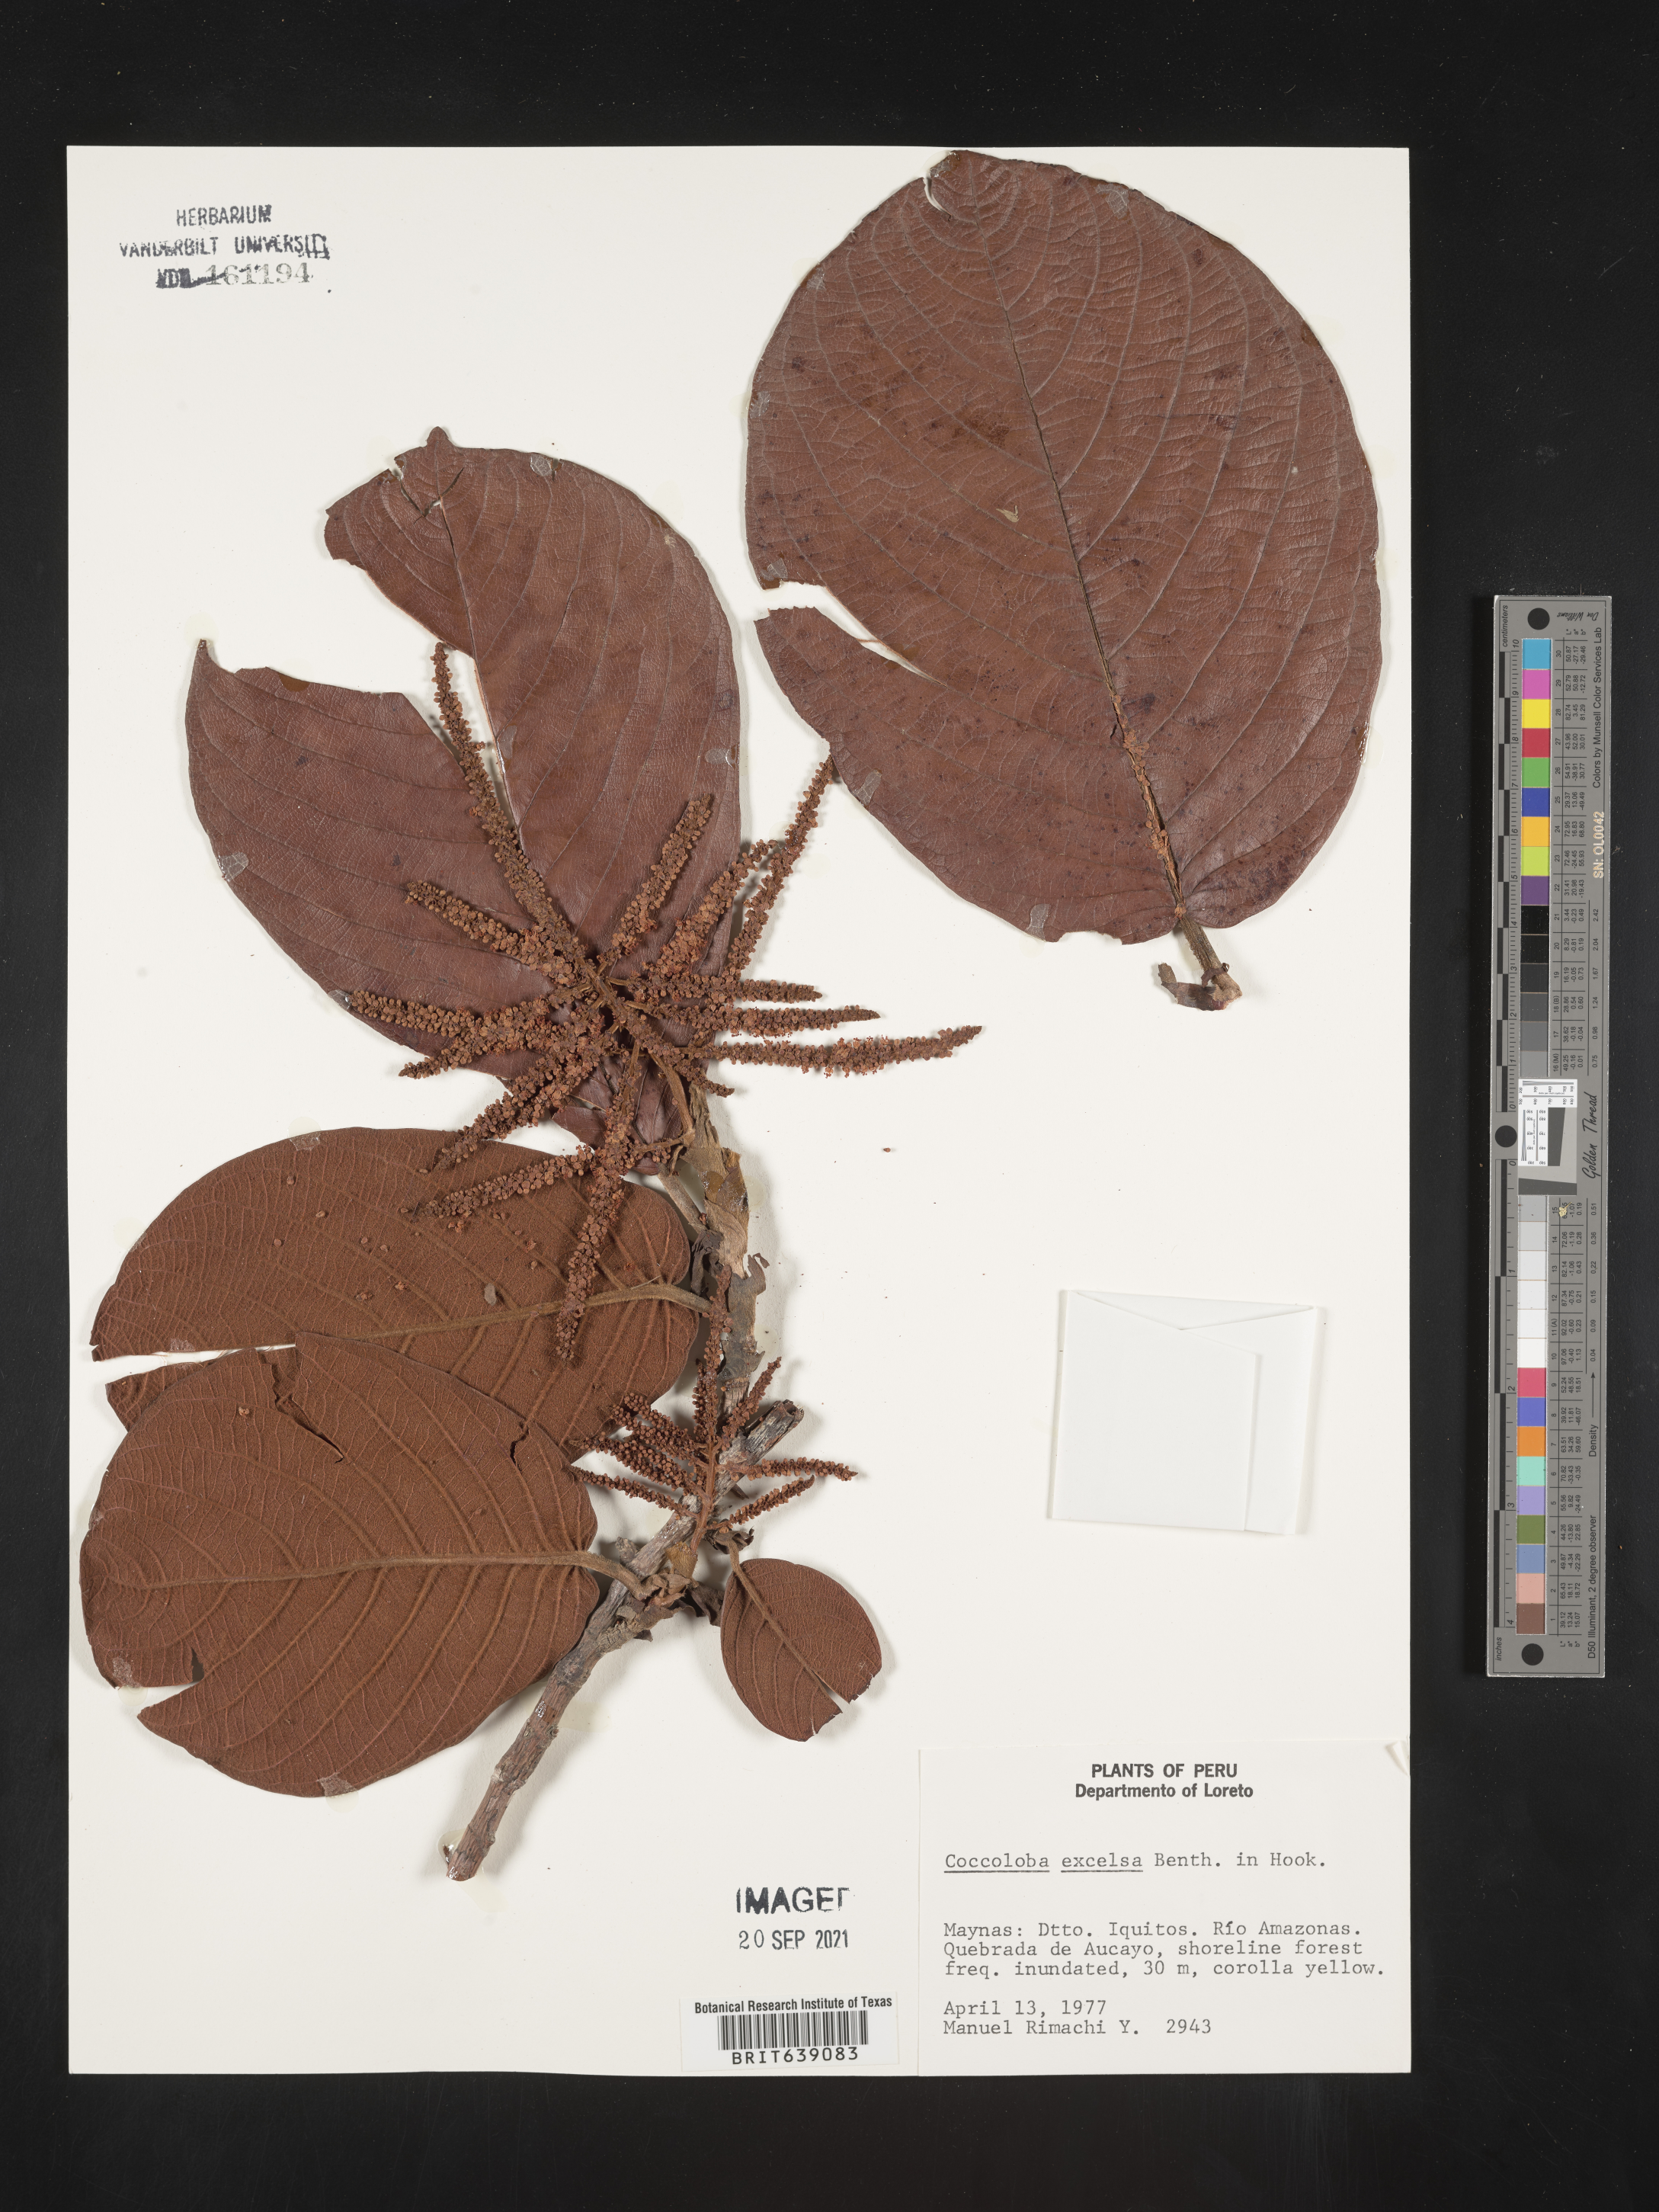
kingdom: Plantae
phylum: Tracheophyta
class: Magnoliopsida
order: Caryophyllales
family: Polygonaceae
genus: Coccoloba
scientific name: Coccoloba
